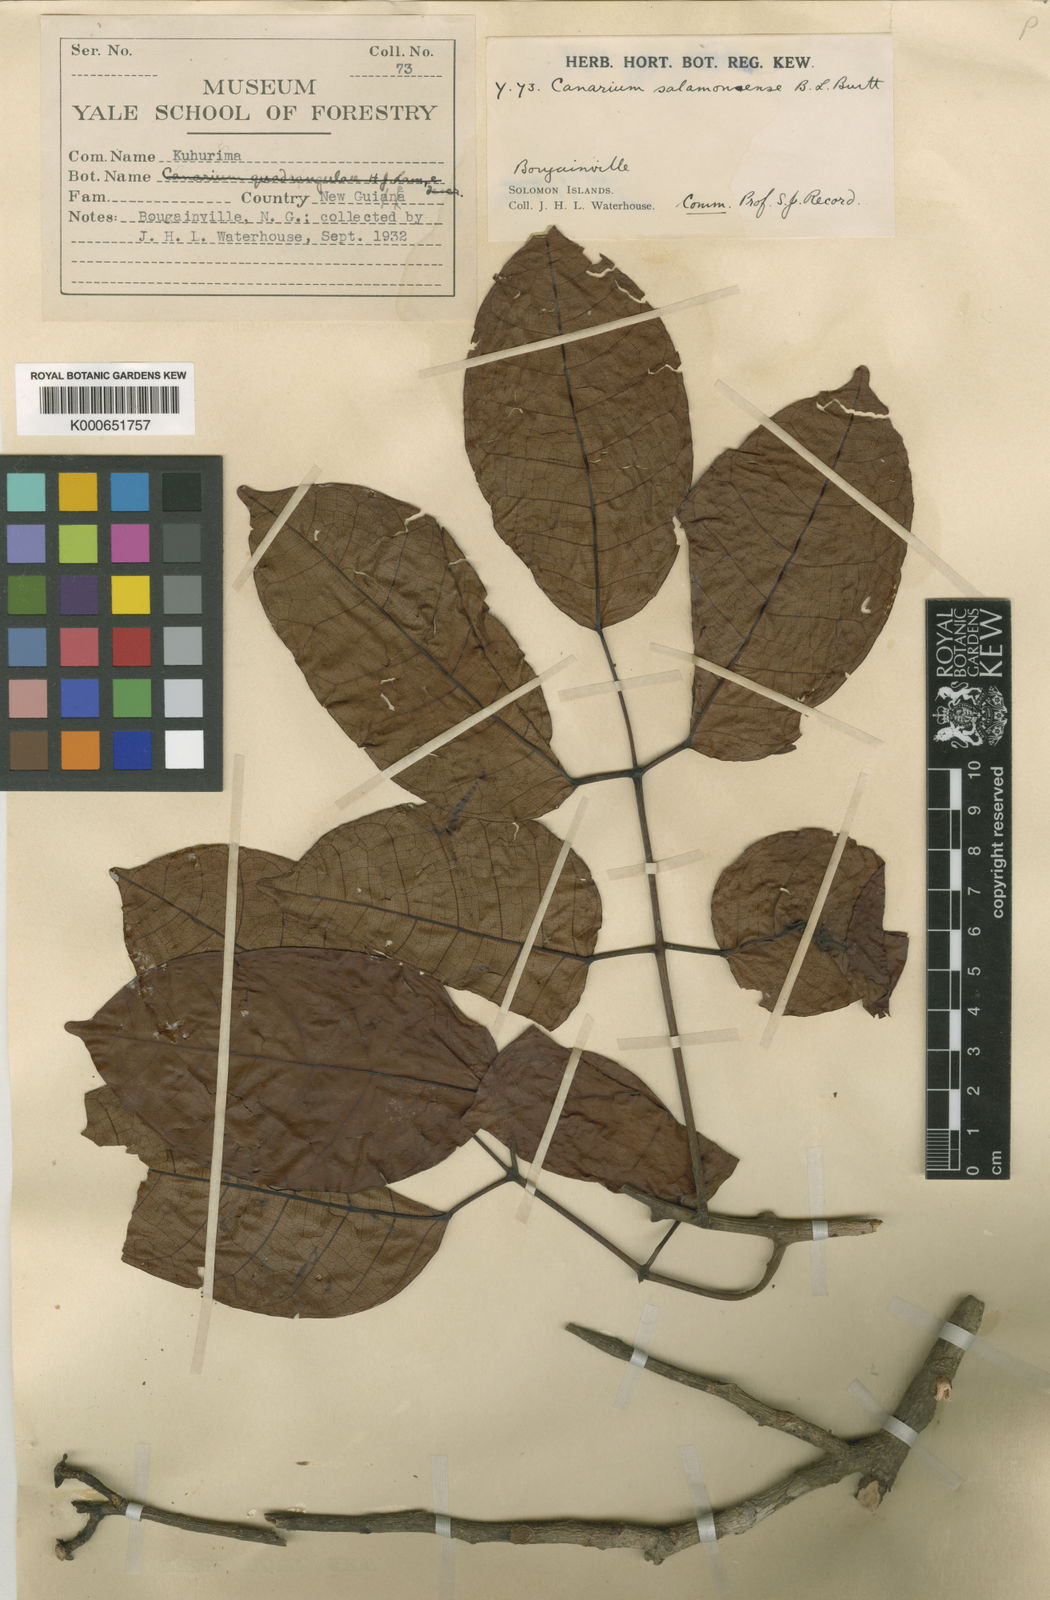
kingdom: Plantae
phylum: Tracheophyta
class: Magnoliopsida
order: Sapindales
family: Burseraceae
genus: Canarium
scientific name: Canarium salomonense
